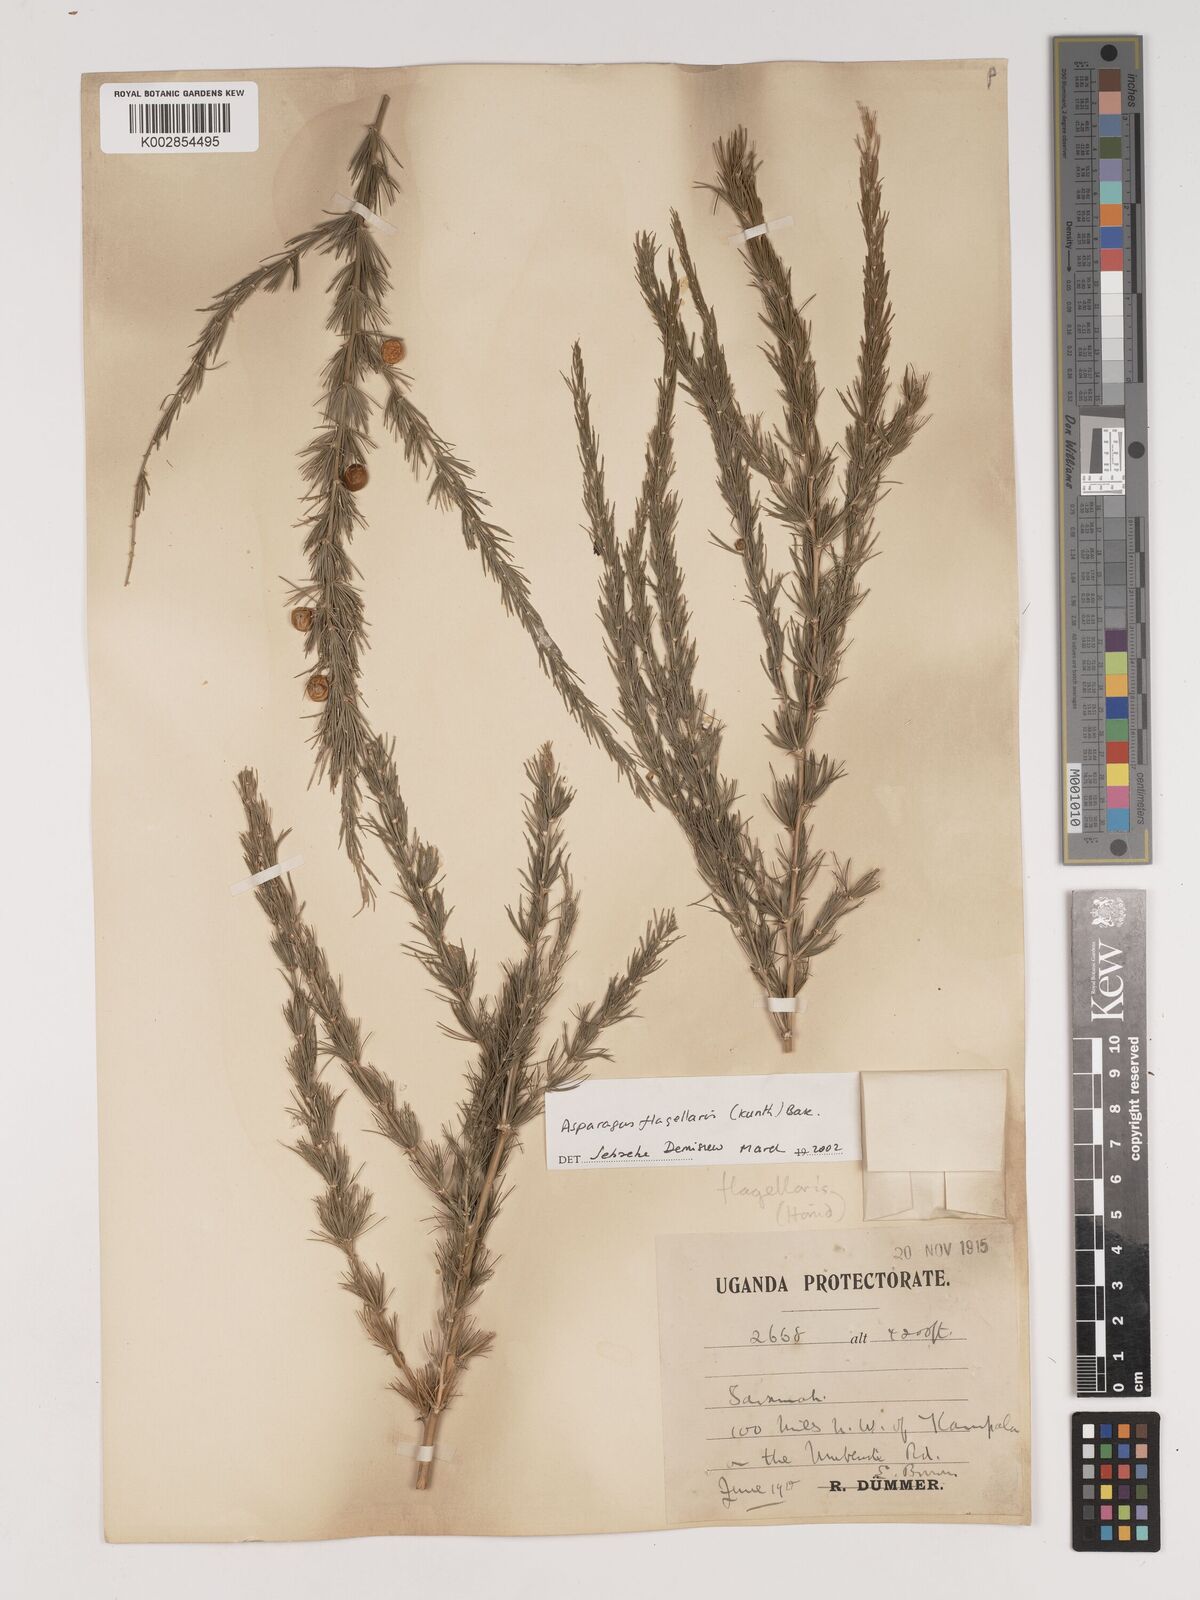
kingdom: Plantae
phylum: Tracheophyta
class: Liliopsida
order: Asparagales
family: Asparagaceae
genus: Asparagus
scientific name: Asparagus flagellaris
